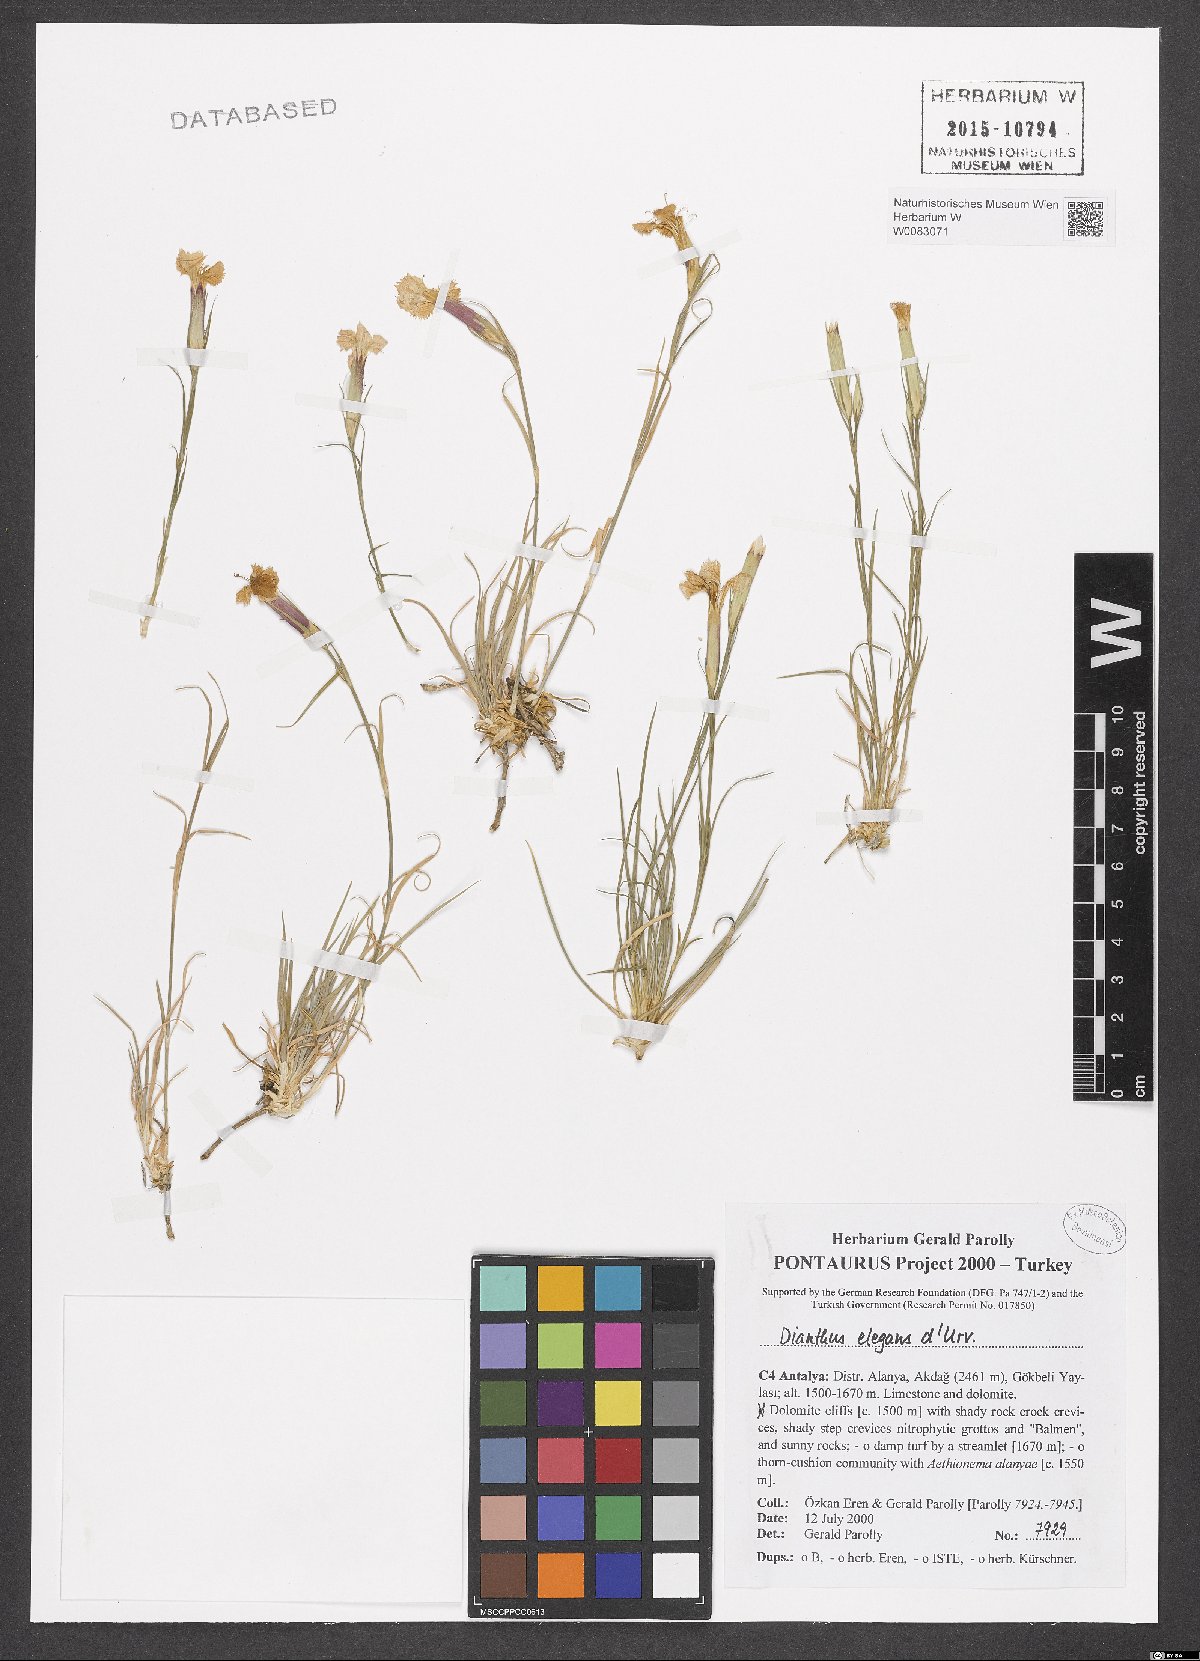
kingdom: Plantae
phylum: Tracheophyta
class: Magnoliopsida
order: Caryophyllales
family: Caryophyllaceae
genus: Dianthus
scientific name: Dianthus elegans
